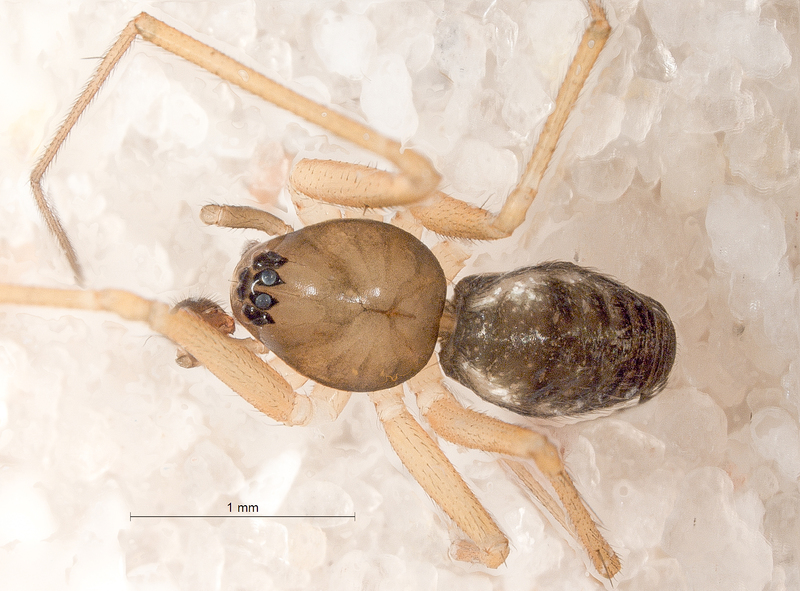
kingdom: Animalia
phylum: Arthropoda
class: Arachnida
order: Araneae
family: Linyphiidae
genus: Tenuiphantes
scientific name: Tenuiphantes tenuis
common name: Dwarf weaver
